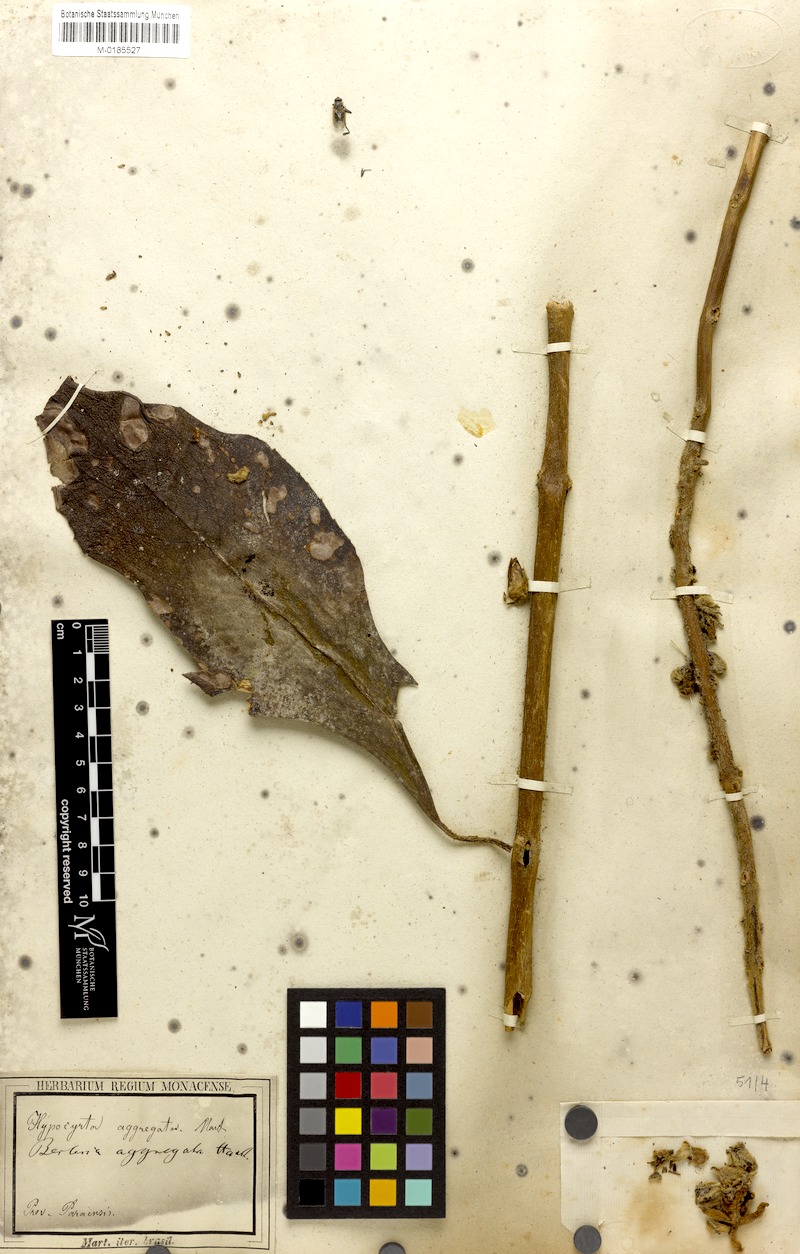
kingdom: Plantae
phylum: Tracheophyta
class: Magnoliopsida
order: Lamiales
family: Gesneriaceae
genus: Besleria
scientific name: Besleria aggregata
